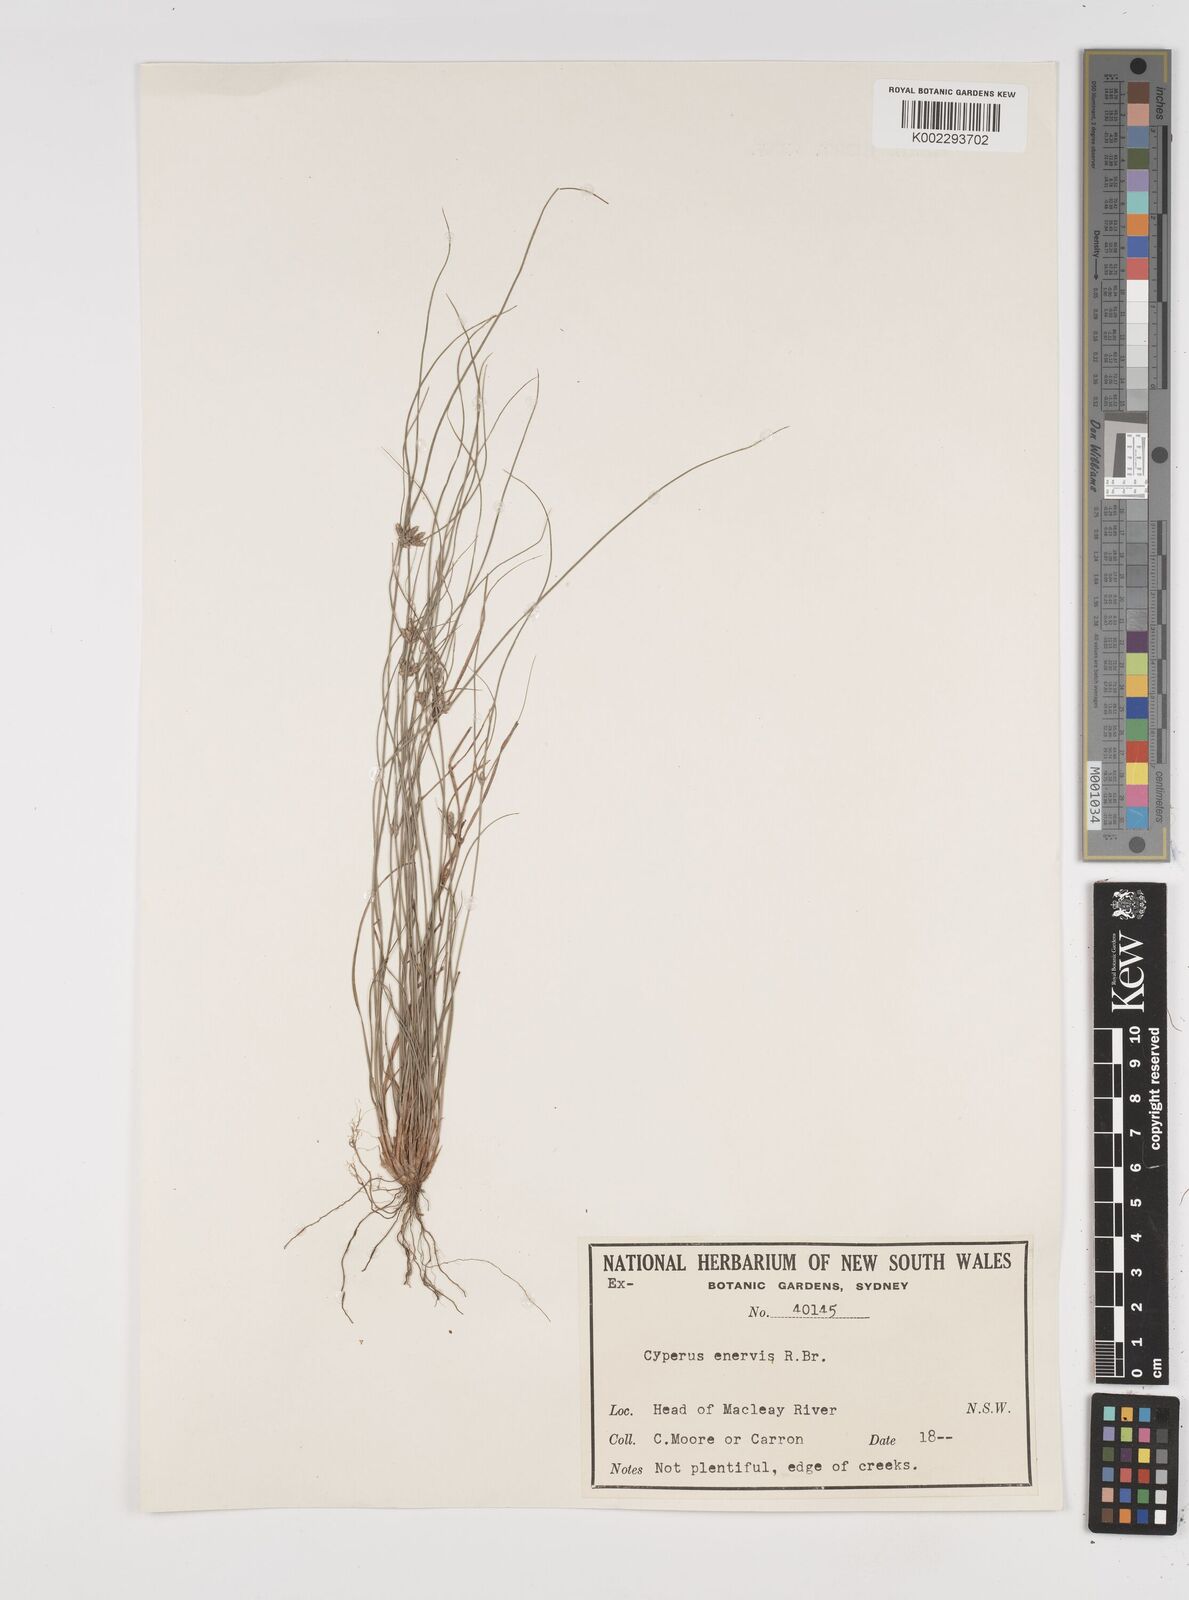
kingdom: Plantae
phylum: Tracheophyta
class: Liliopsida
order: Poales
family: Cyperaceae
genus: Cyperus
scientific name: Cyperus enervis
